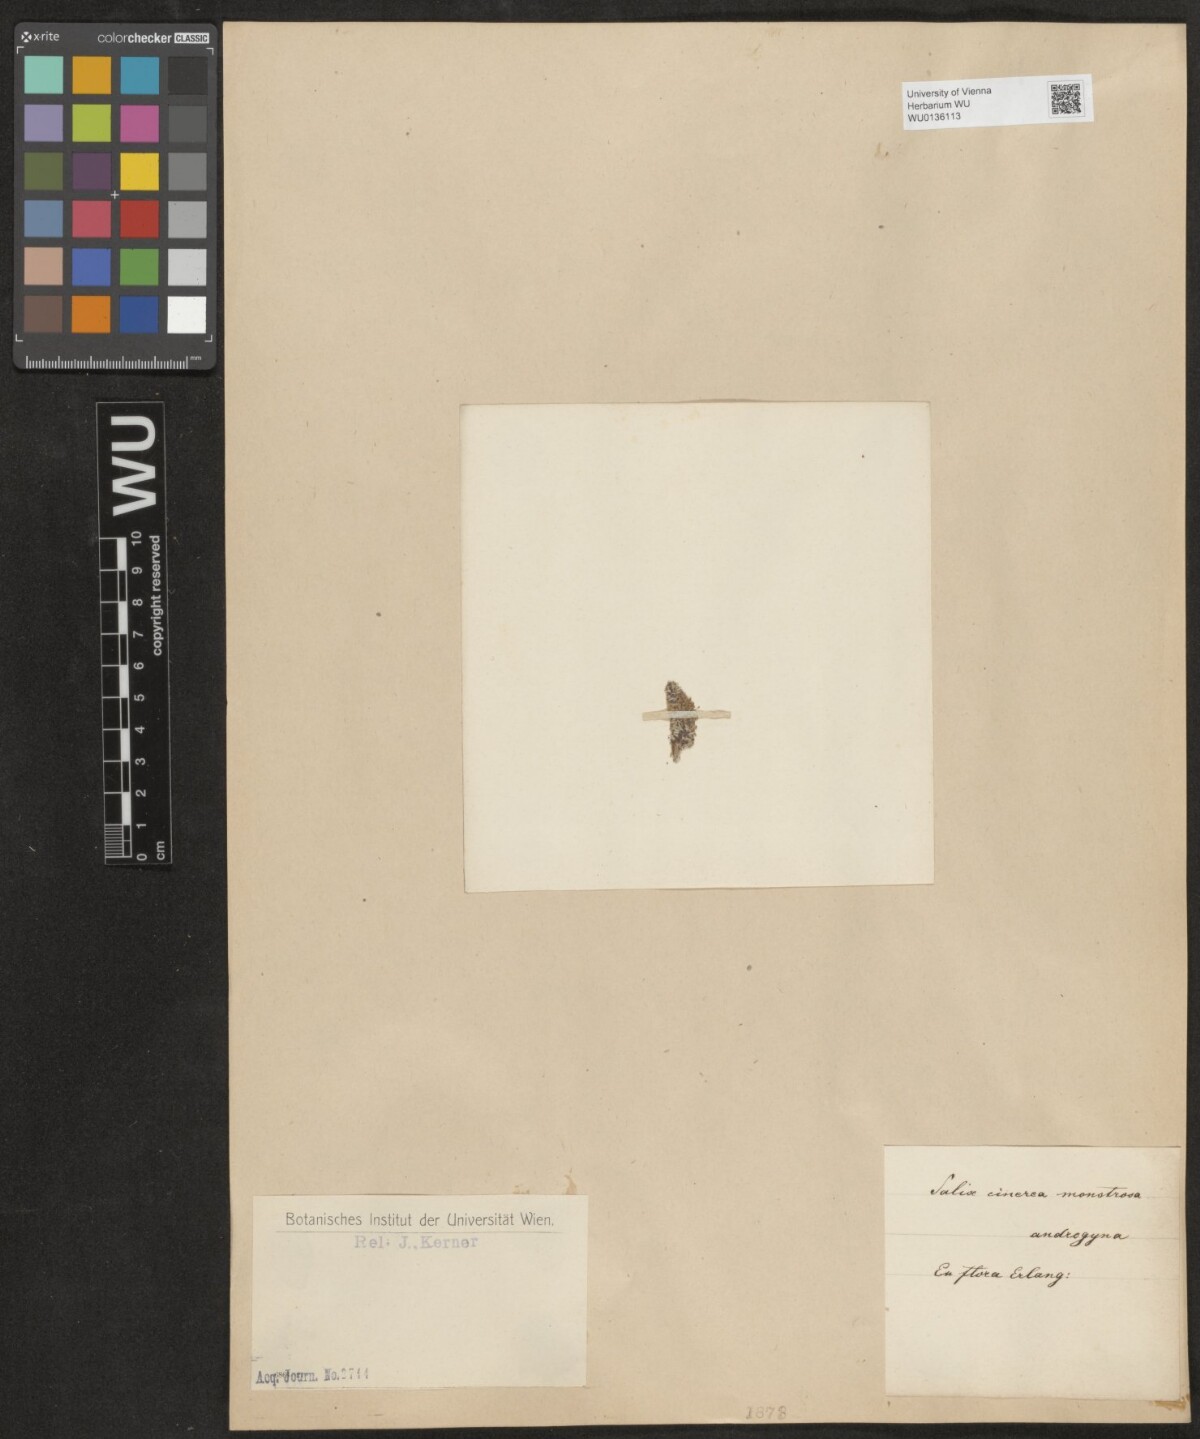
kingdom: Plantae
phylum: Tracheophyta
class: Magnoliopsida
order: Malpighiales
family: Salicaceae
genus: Salix
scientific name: Salix cinerea
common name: Common sallow
